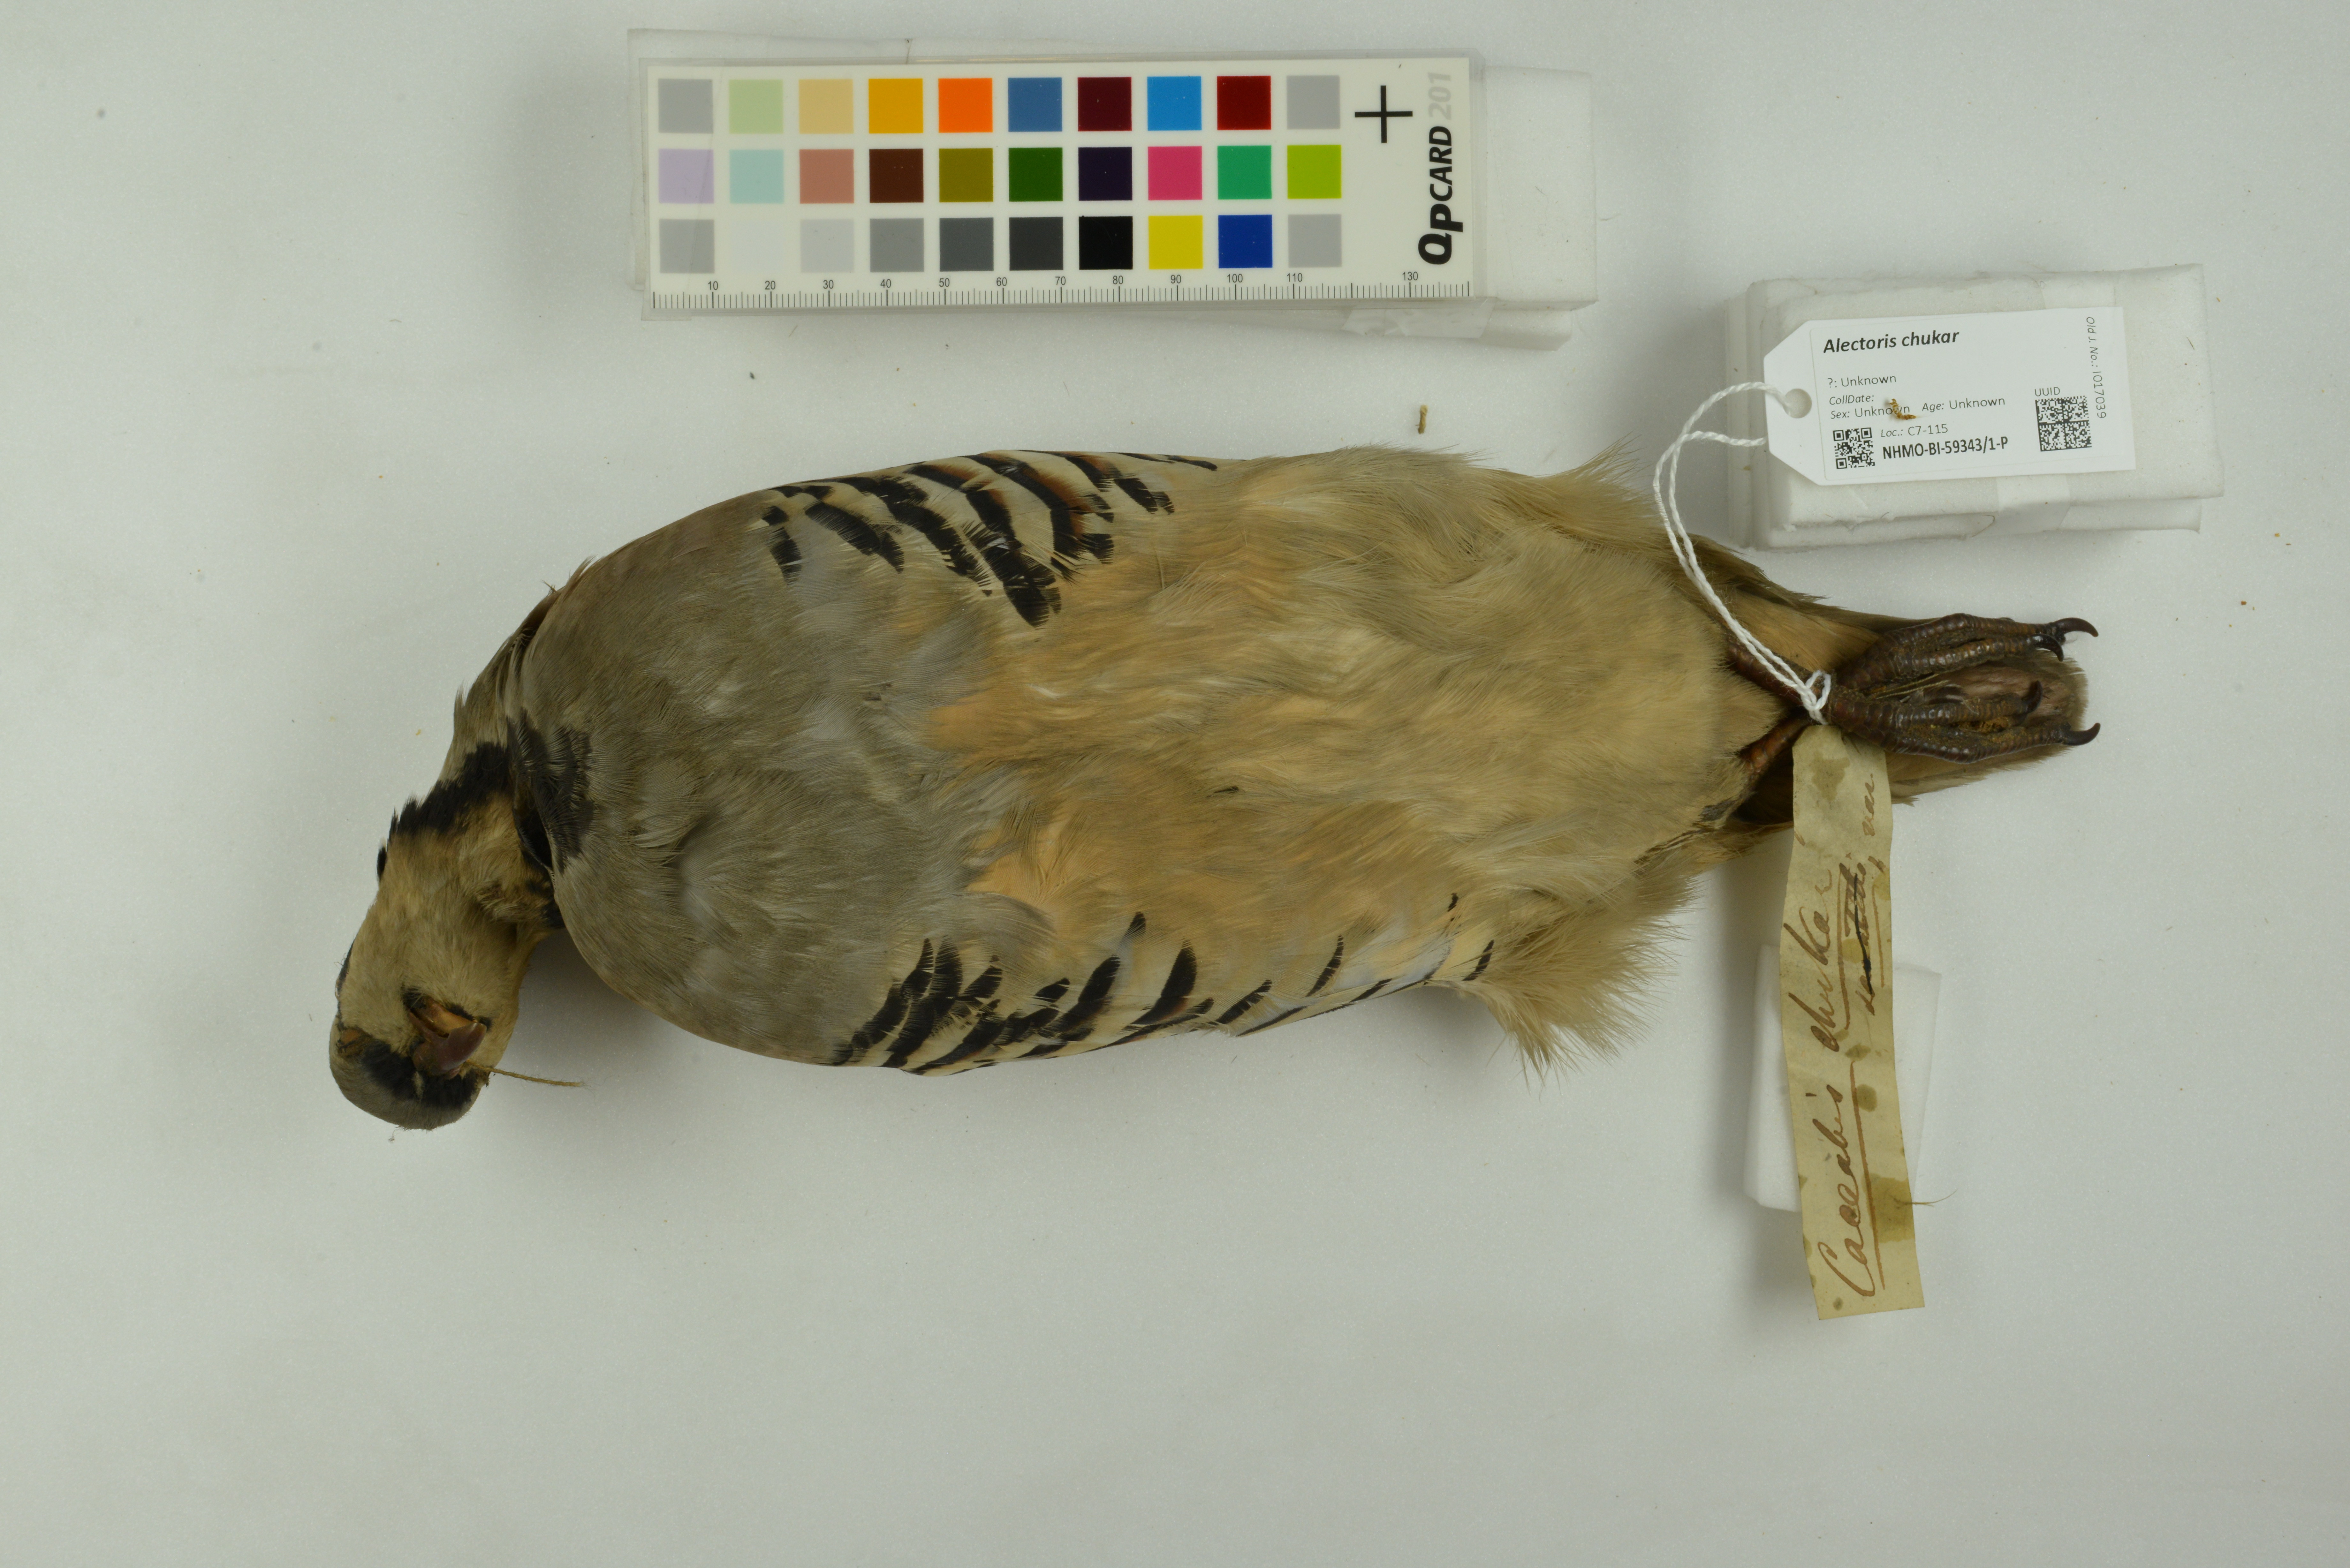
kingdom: Animalia
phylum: Chordata
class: Aves
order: Galliformes
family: Phasianidae
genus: Alectoris
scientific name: Alectoris chukar
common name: Chukar
